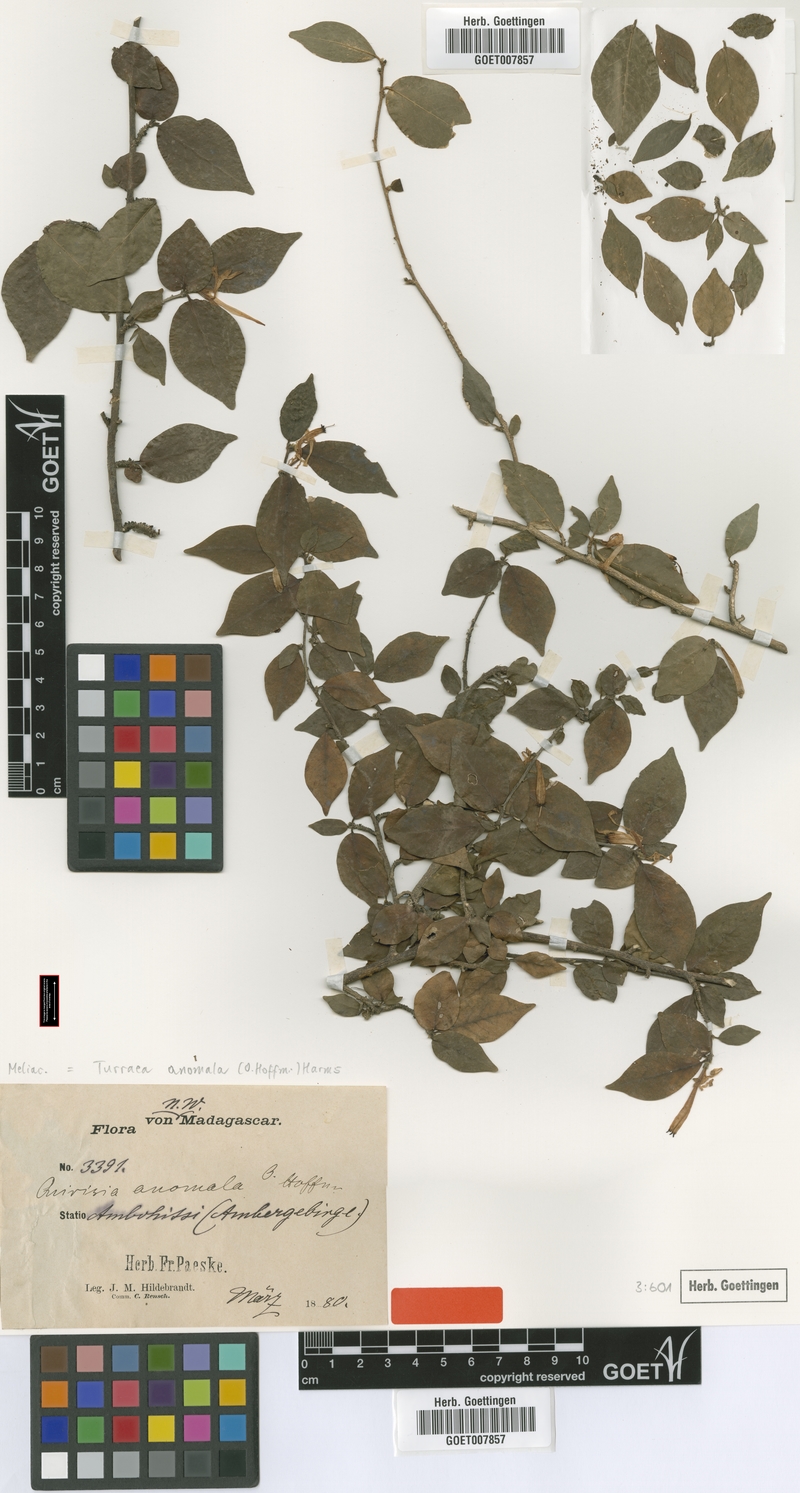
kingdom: Plantae
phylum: Tracheophyta
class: Magnoliopsida
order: Sapindales
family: Meliaceae
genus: Turraea
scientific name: Turraea anomala
